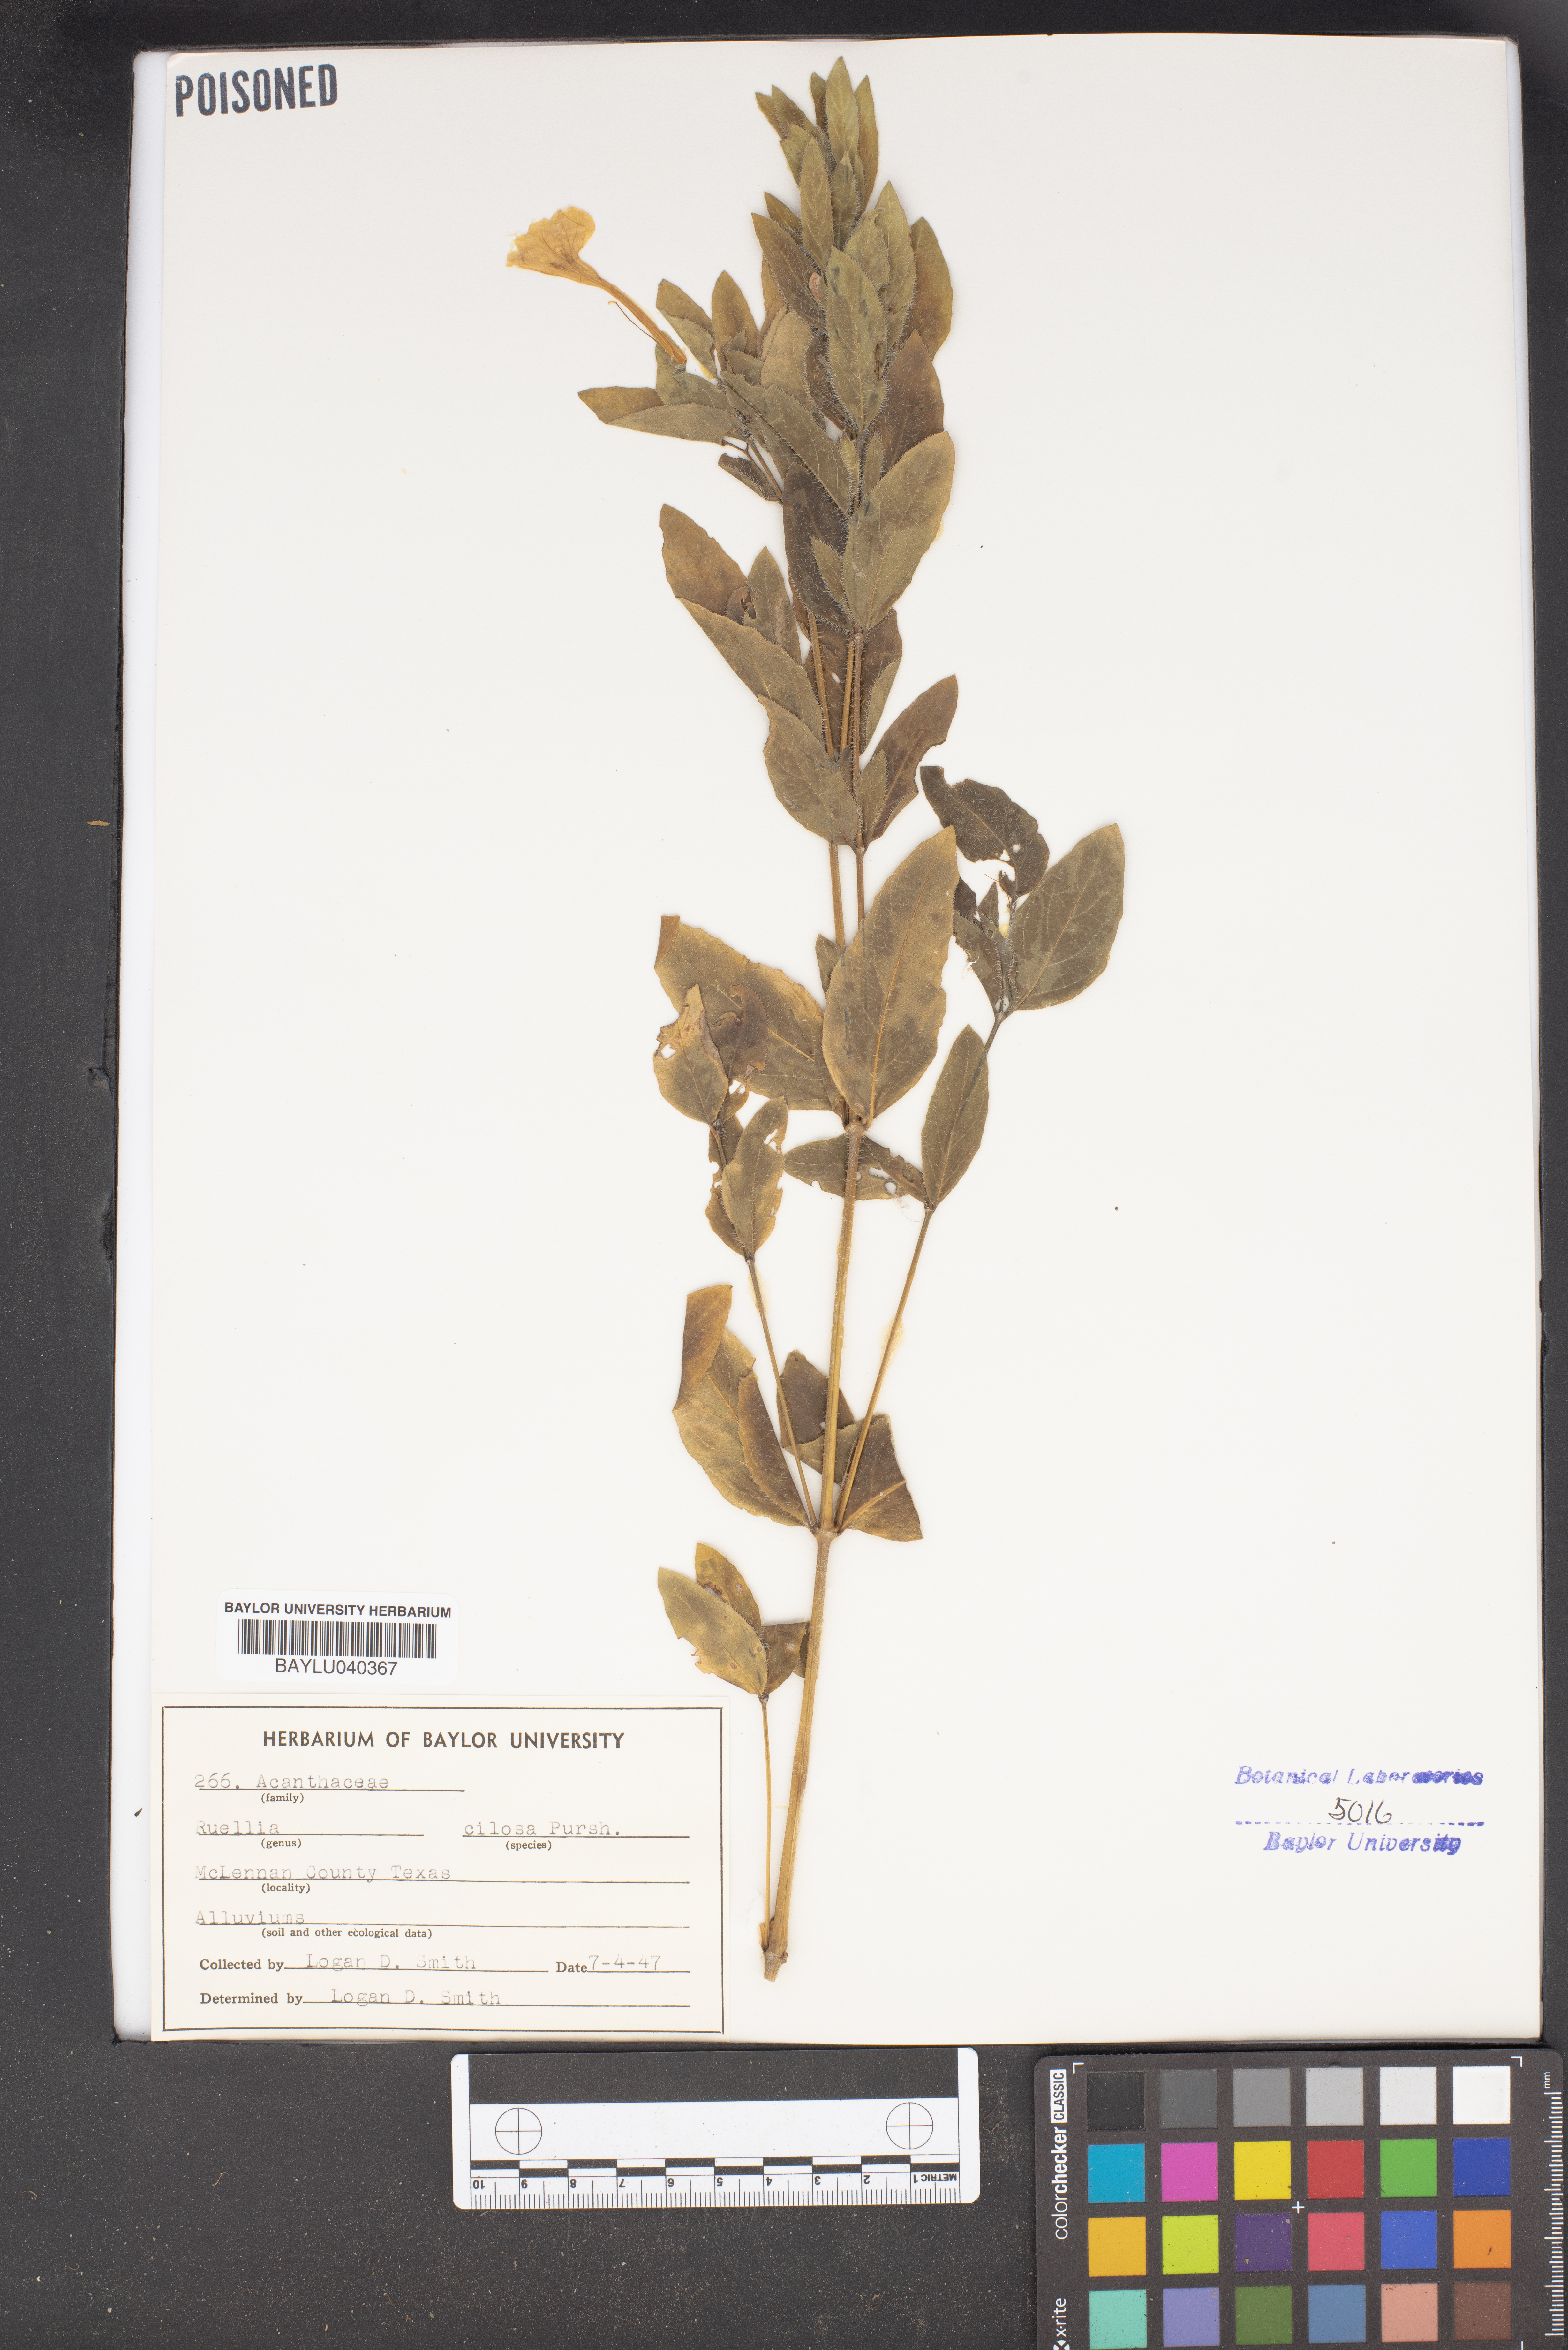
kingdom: Plantae
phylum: Tracheophyta
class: Magnoliopsida
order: Lamiales
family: Acanthaceae
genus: Ruellia
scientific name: Ruellia caroliniensis
